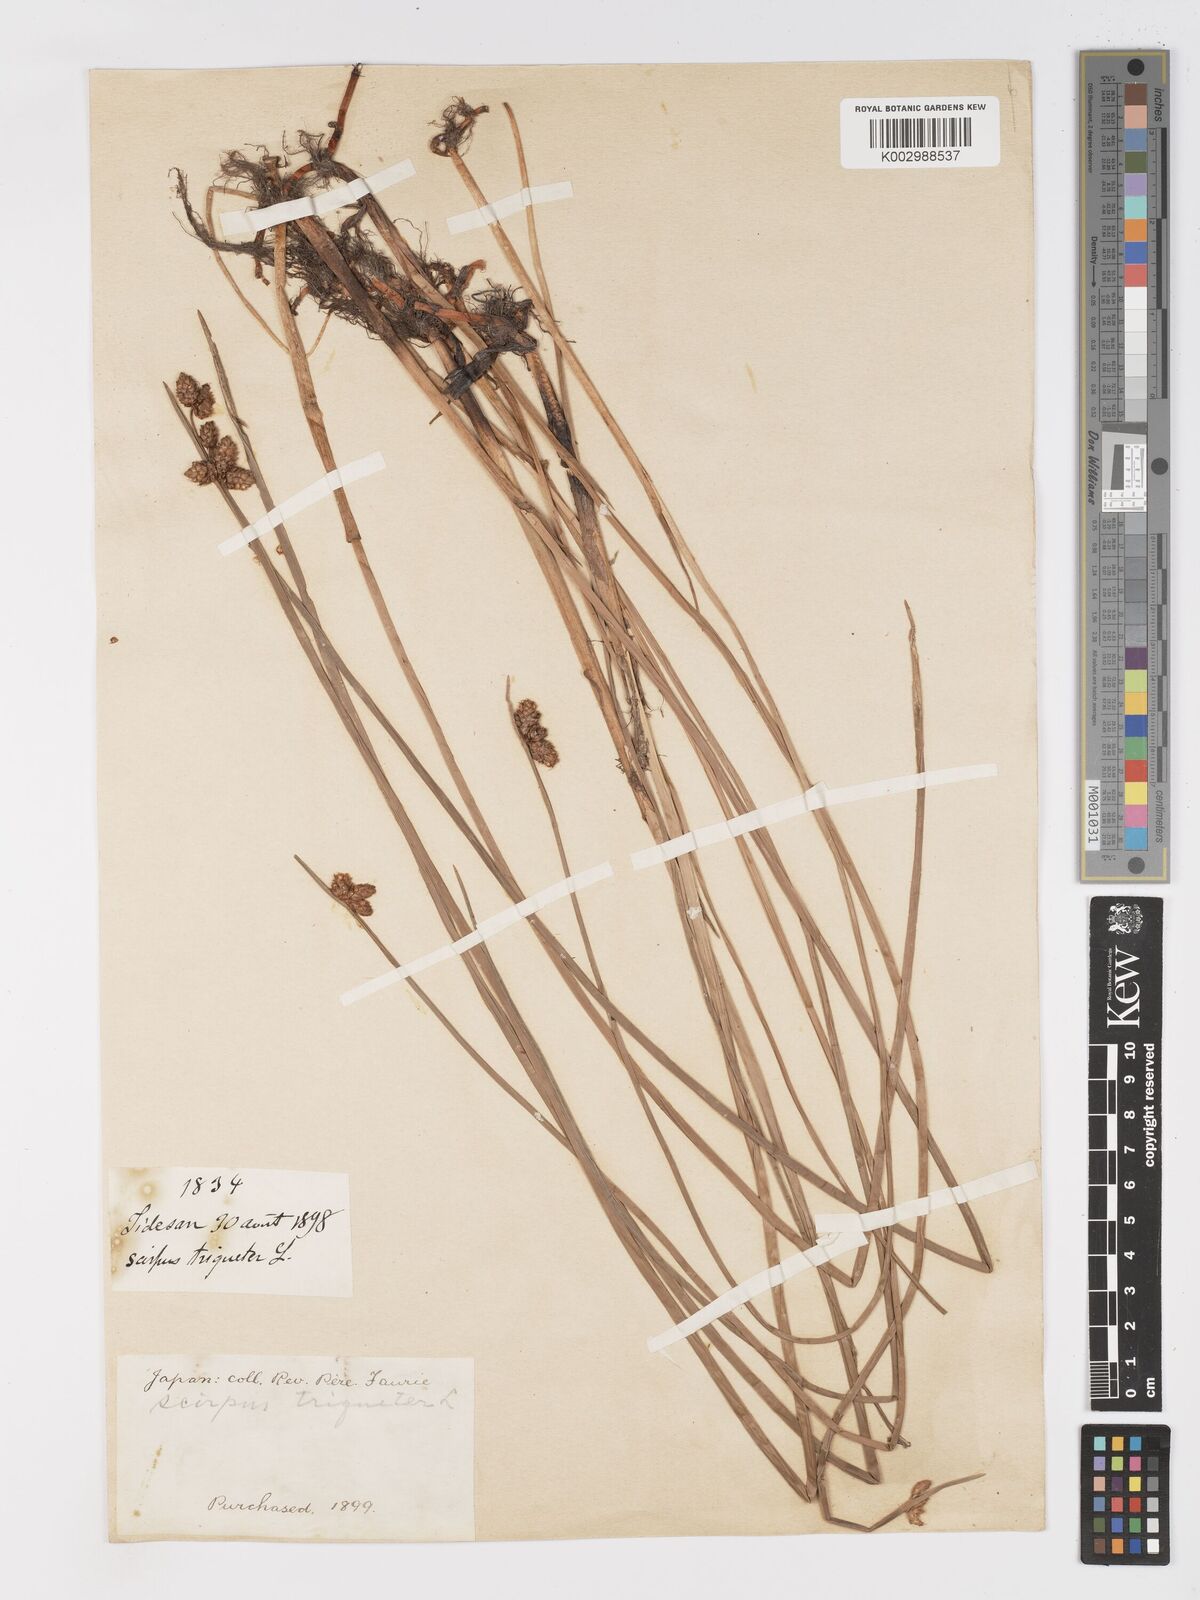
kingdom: Plantae
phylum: Tracheophyta
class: Liliopsida
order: Poales
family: Cyperaceae
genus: Schoenoplectus
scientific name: Schoenoplectus triqueter
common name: Triangular club-rush
